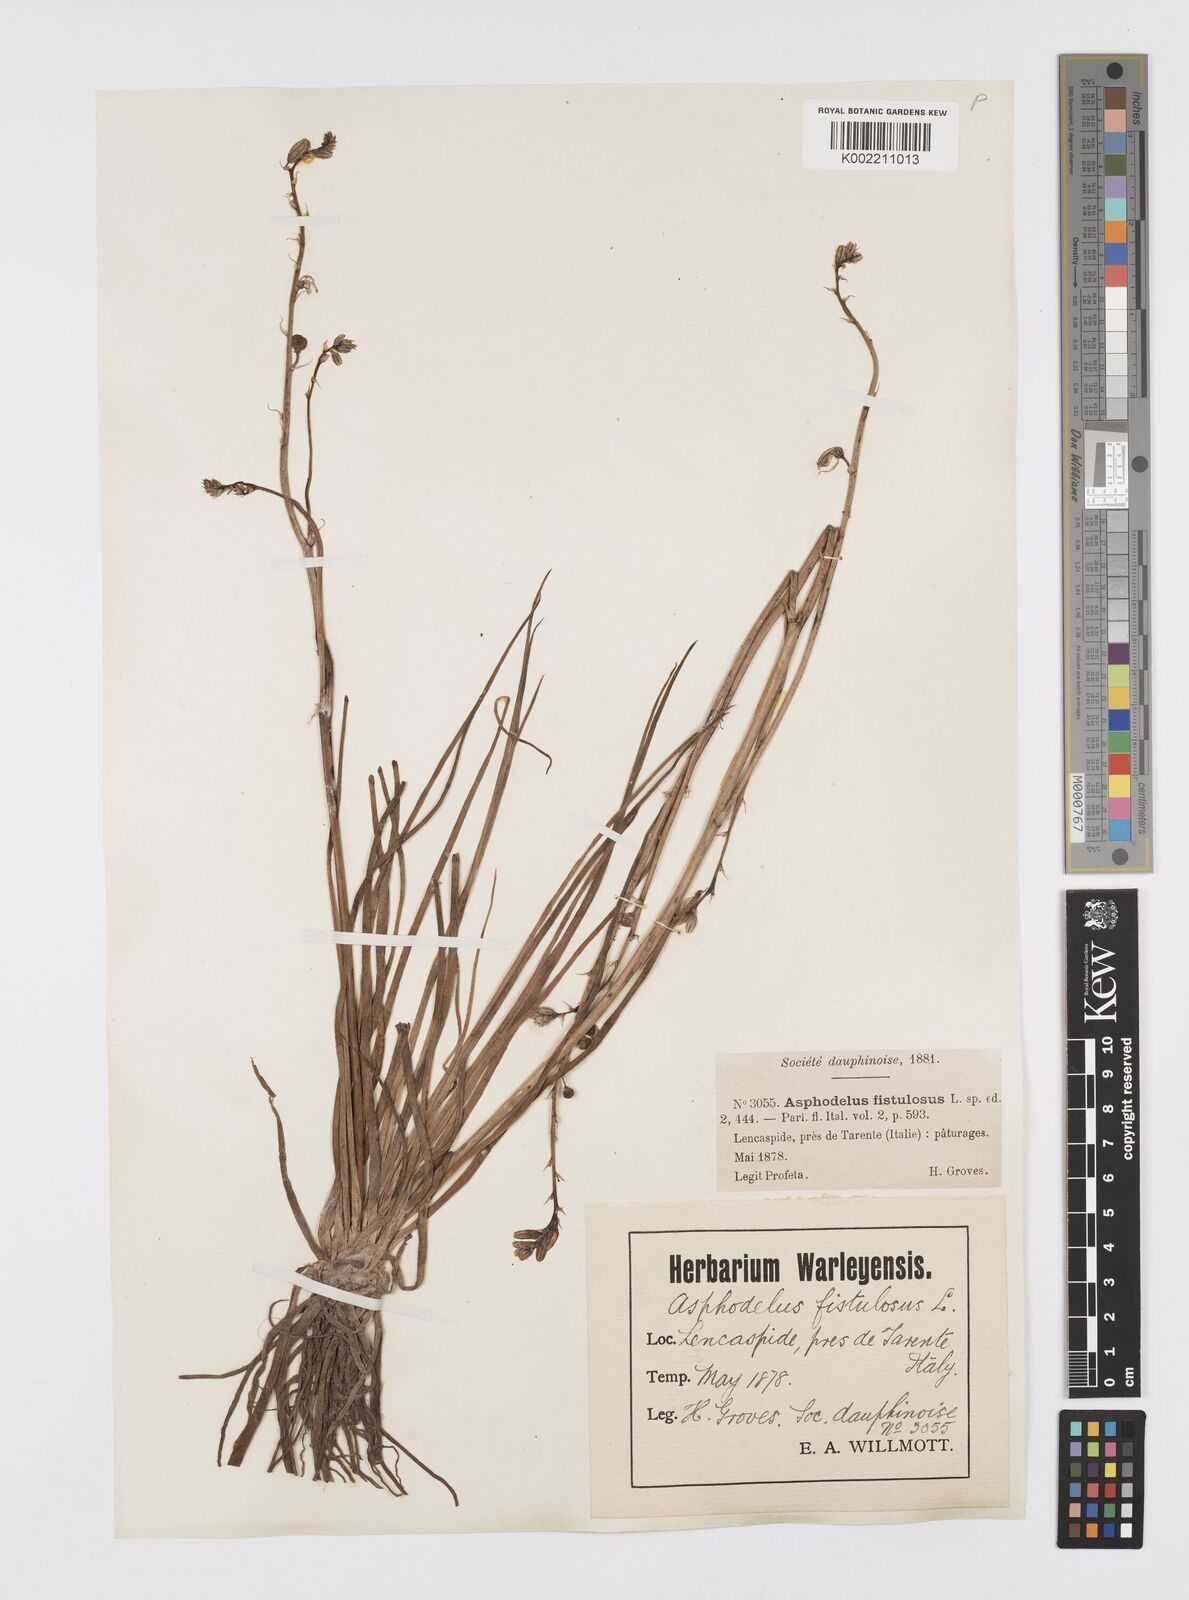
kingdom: Plantae
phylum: Tracheophyta
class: Liliopsida
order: Asparagales
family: Asphodelaceae
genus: Asphodelus
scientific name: Asphodelus fistulosus
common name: Onionweed
